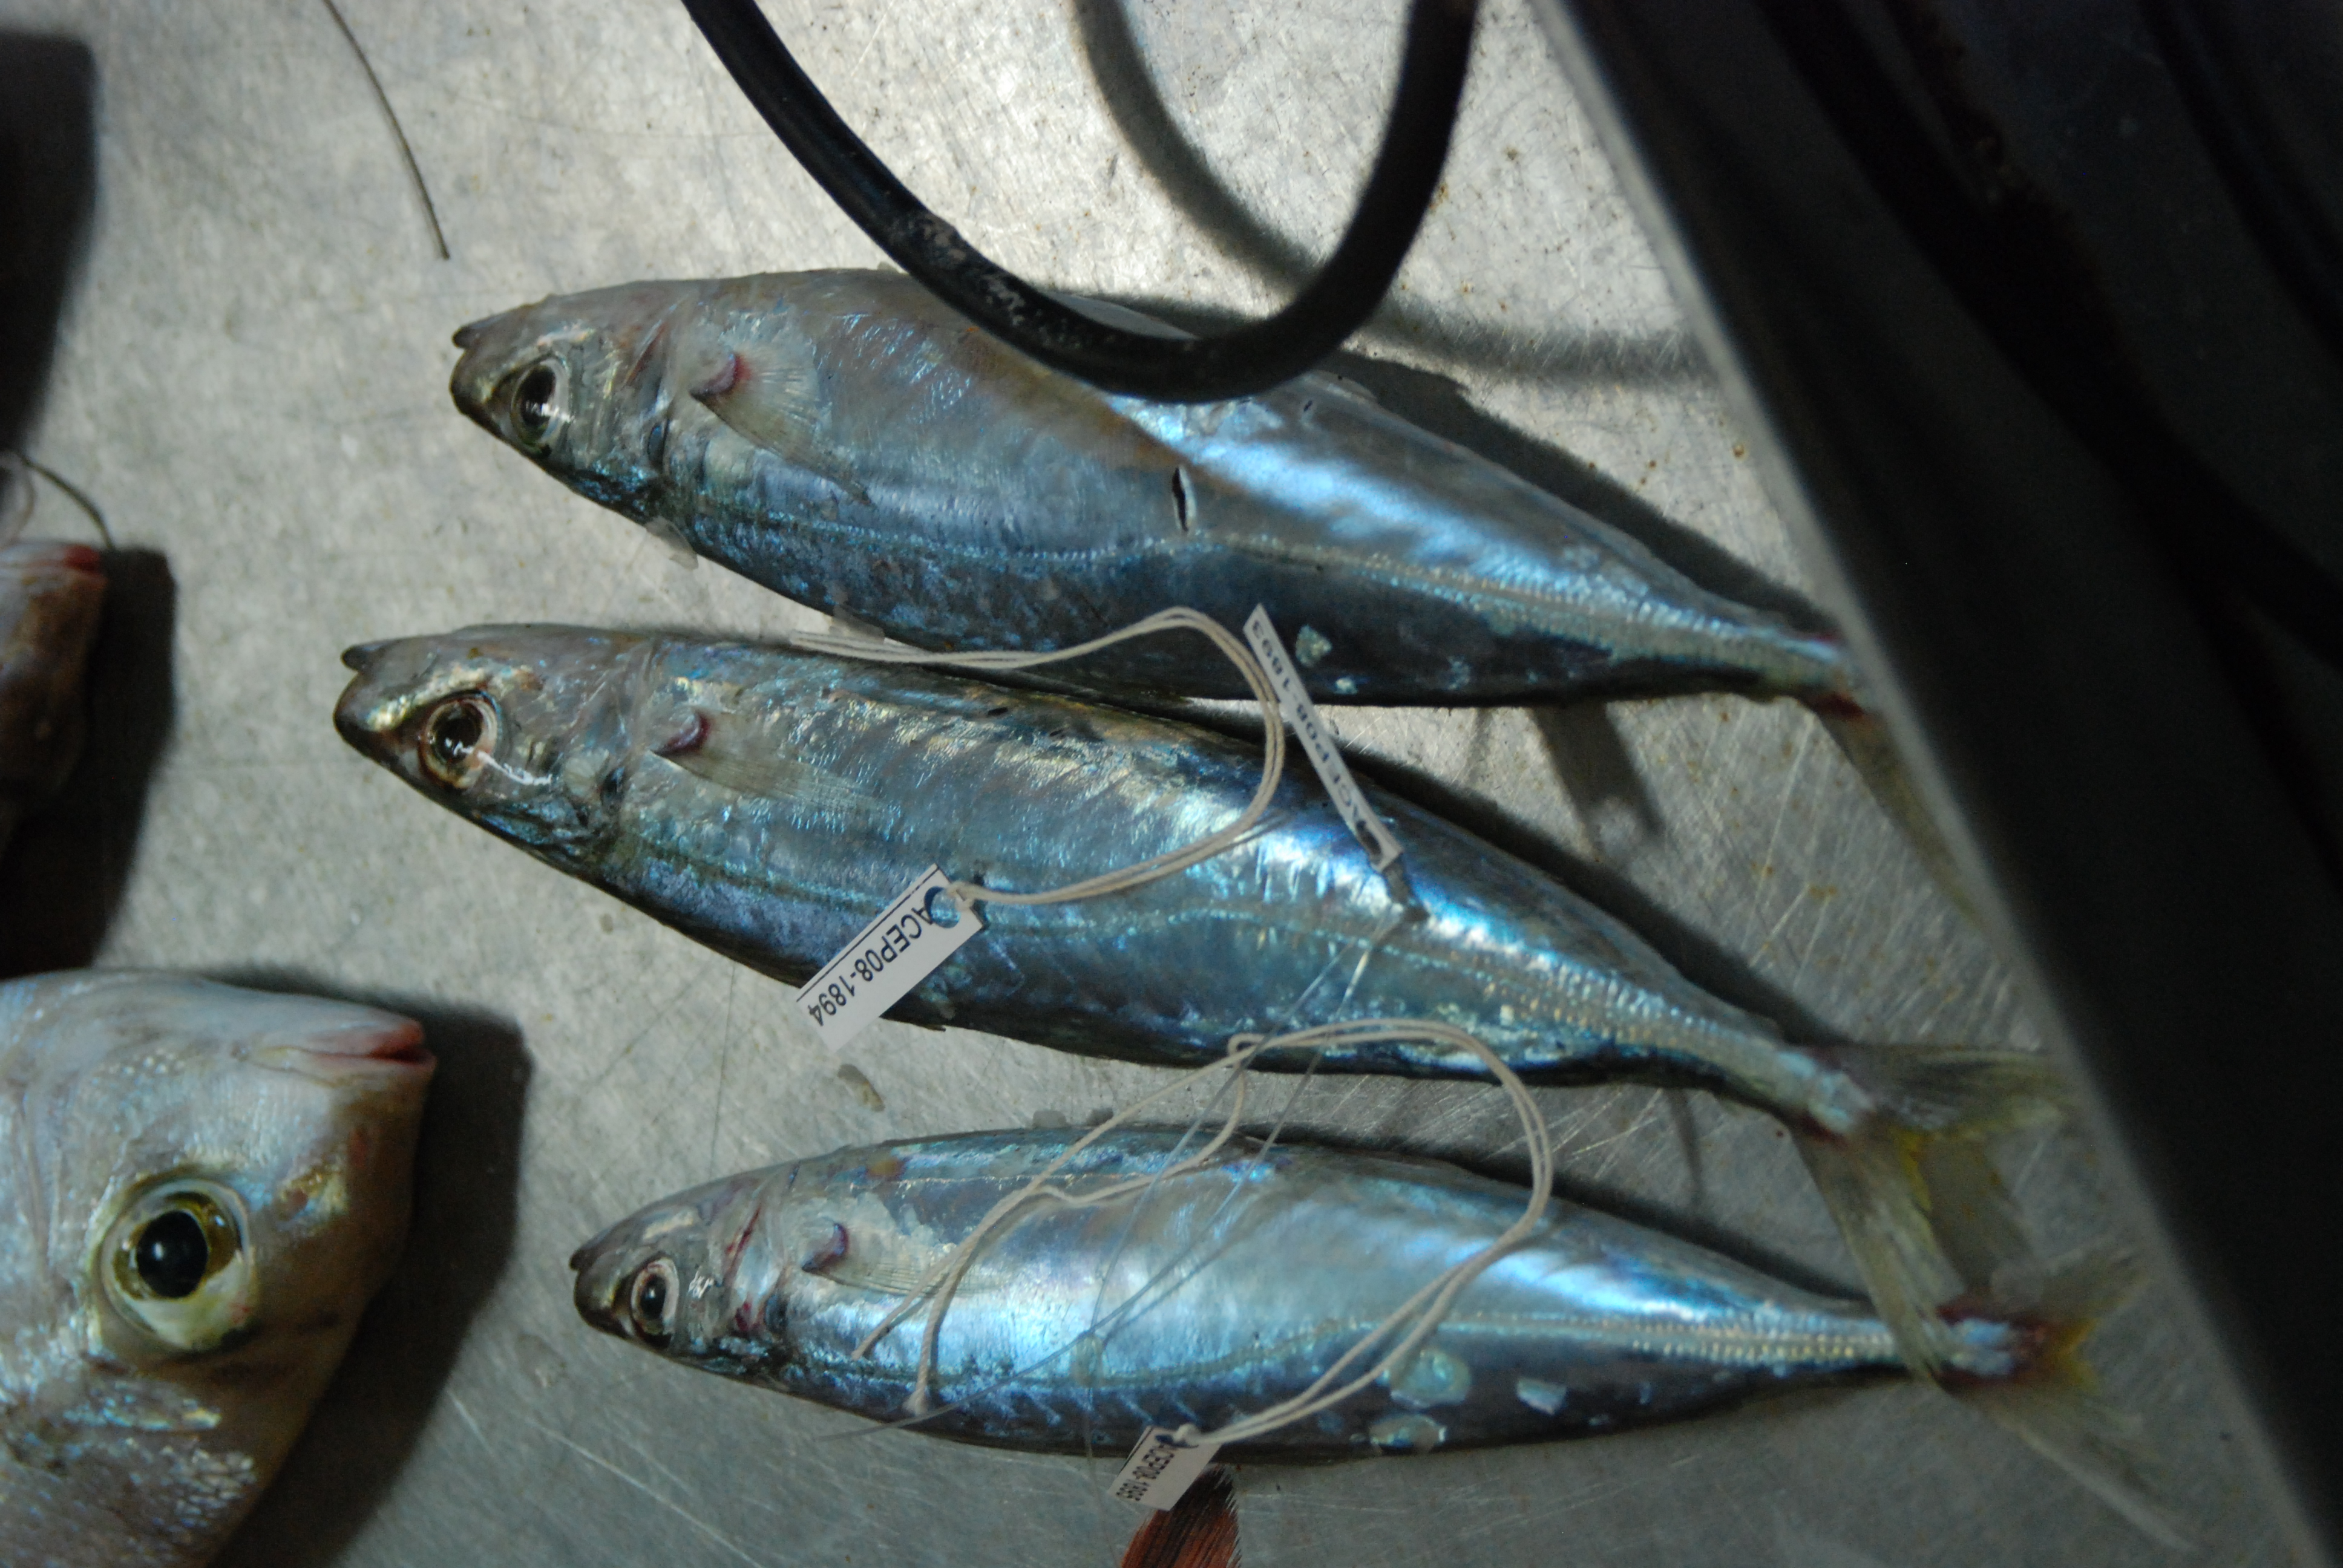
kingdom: Animalia
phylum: Chordata
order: Perciformes
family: Carangidae
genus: Decapterus
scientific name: Decapterus
